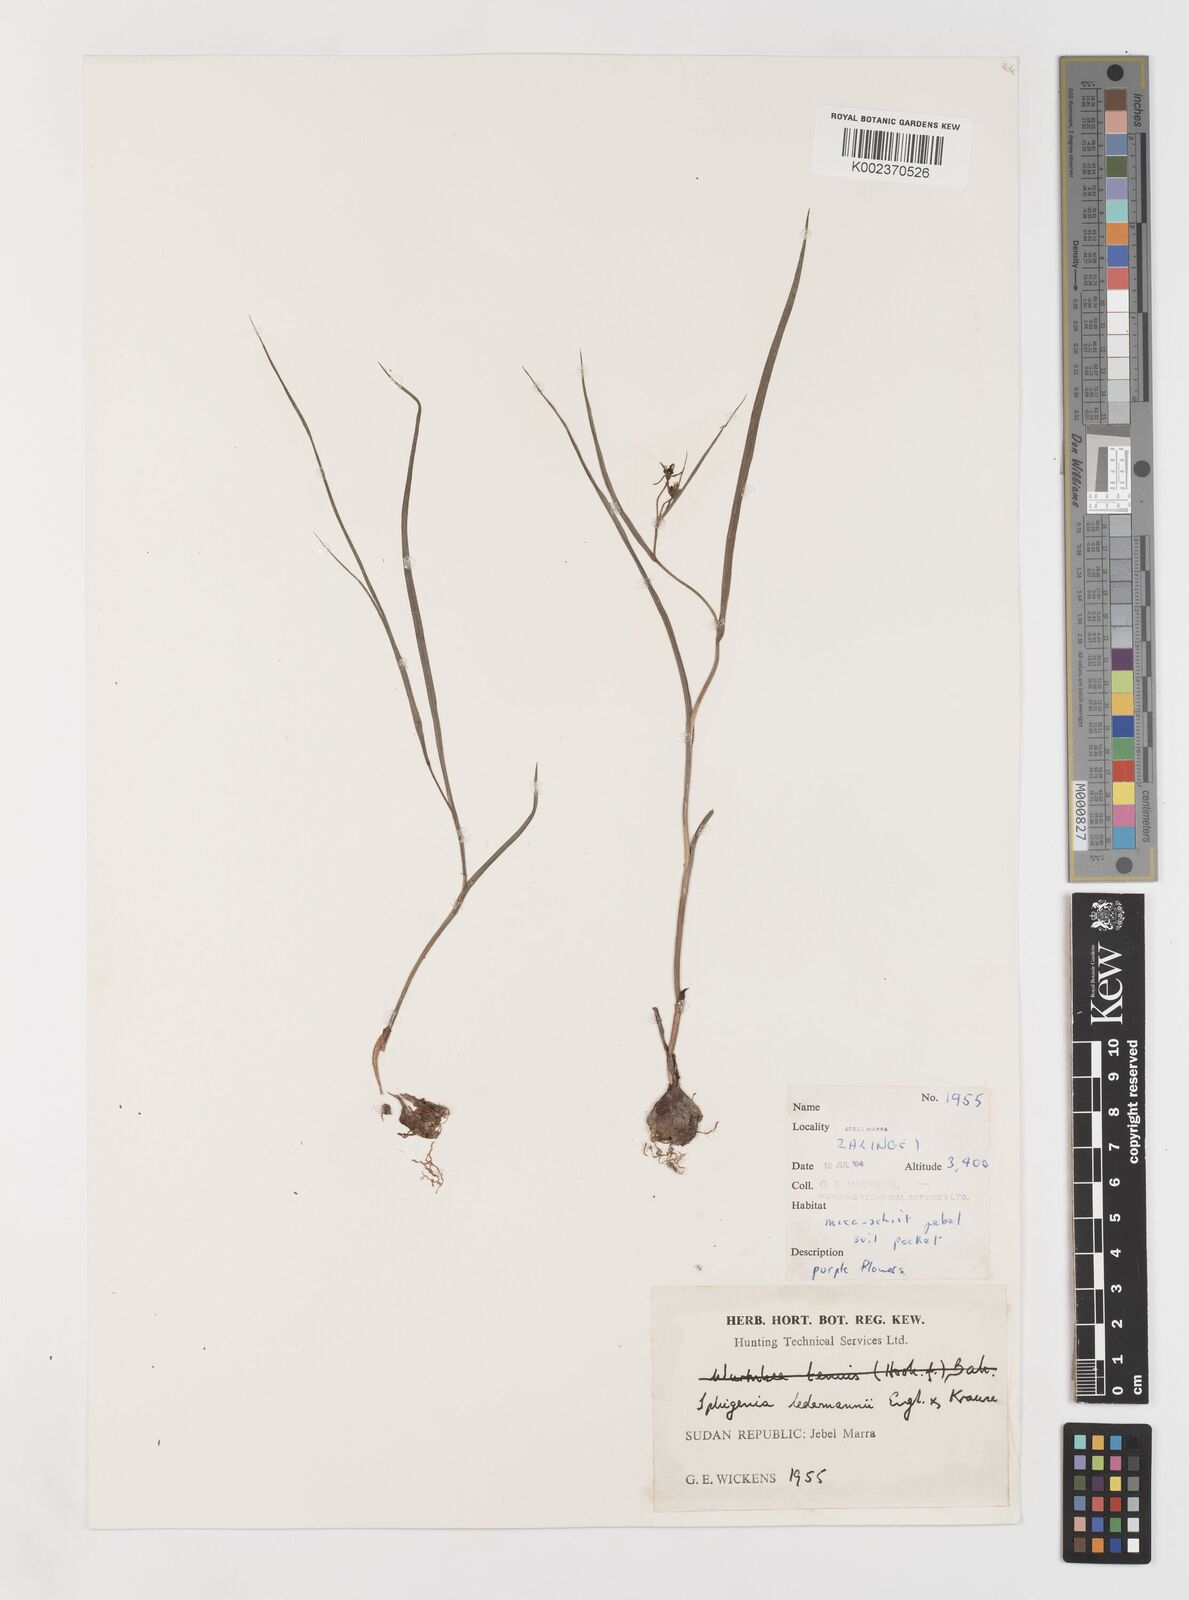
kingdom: Plantae
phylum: Tracheophyta
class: Liliopsida
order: Liliales
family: Colchicaceae
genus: Iphigenia
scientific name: Iphigenia pauciflora
